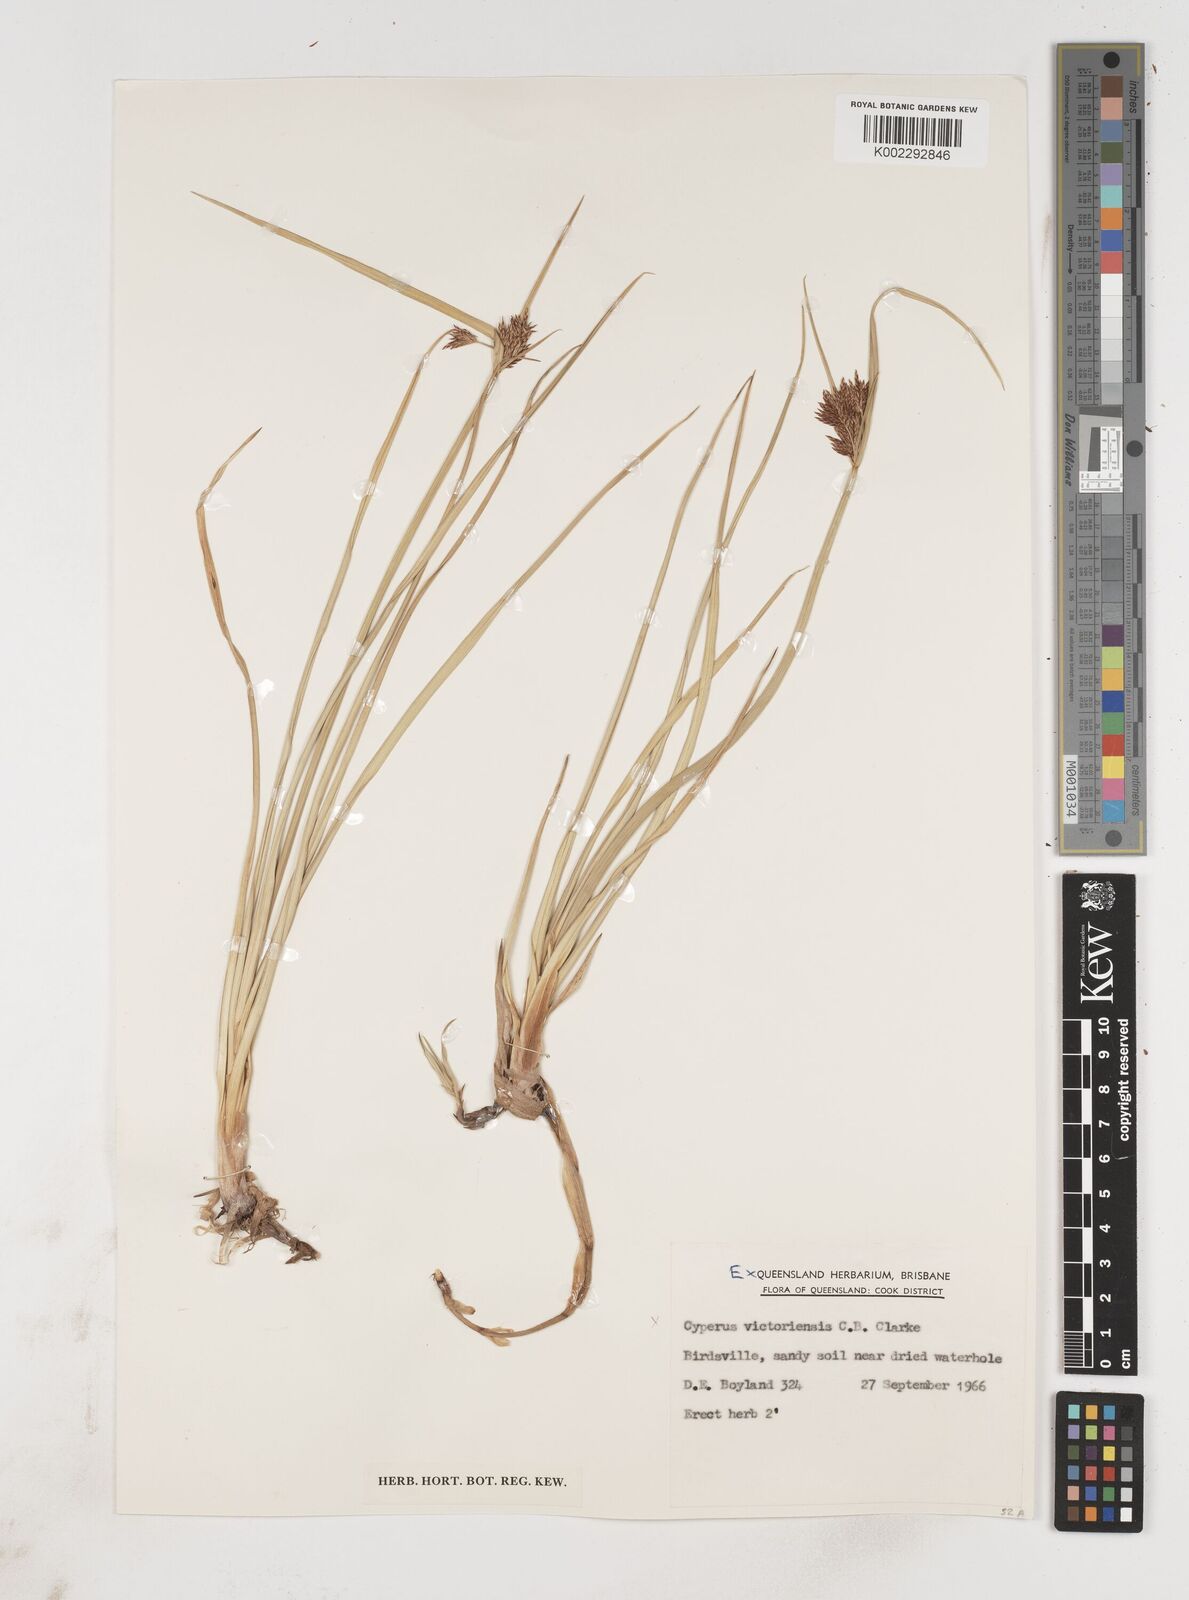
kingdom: Plantae
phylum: Tracheophyta
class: Liliopsida
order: Poales
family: Cyperaceae
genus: Cyperus
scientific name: Cyperus victoriensis
